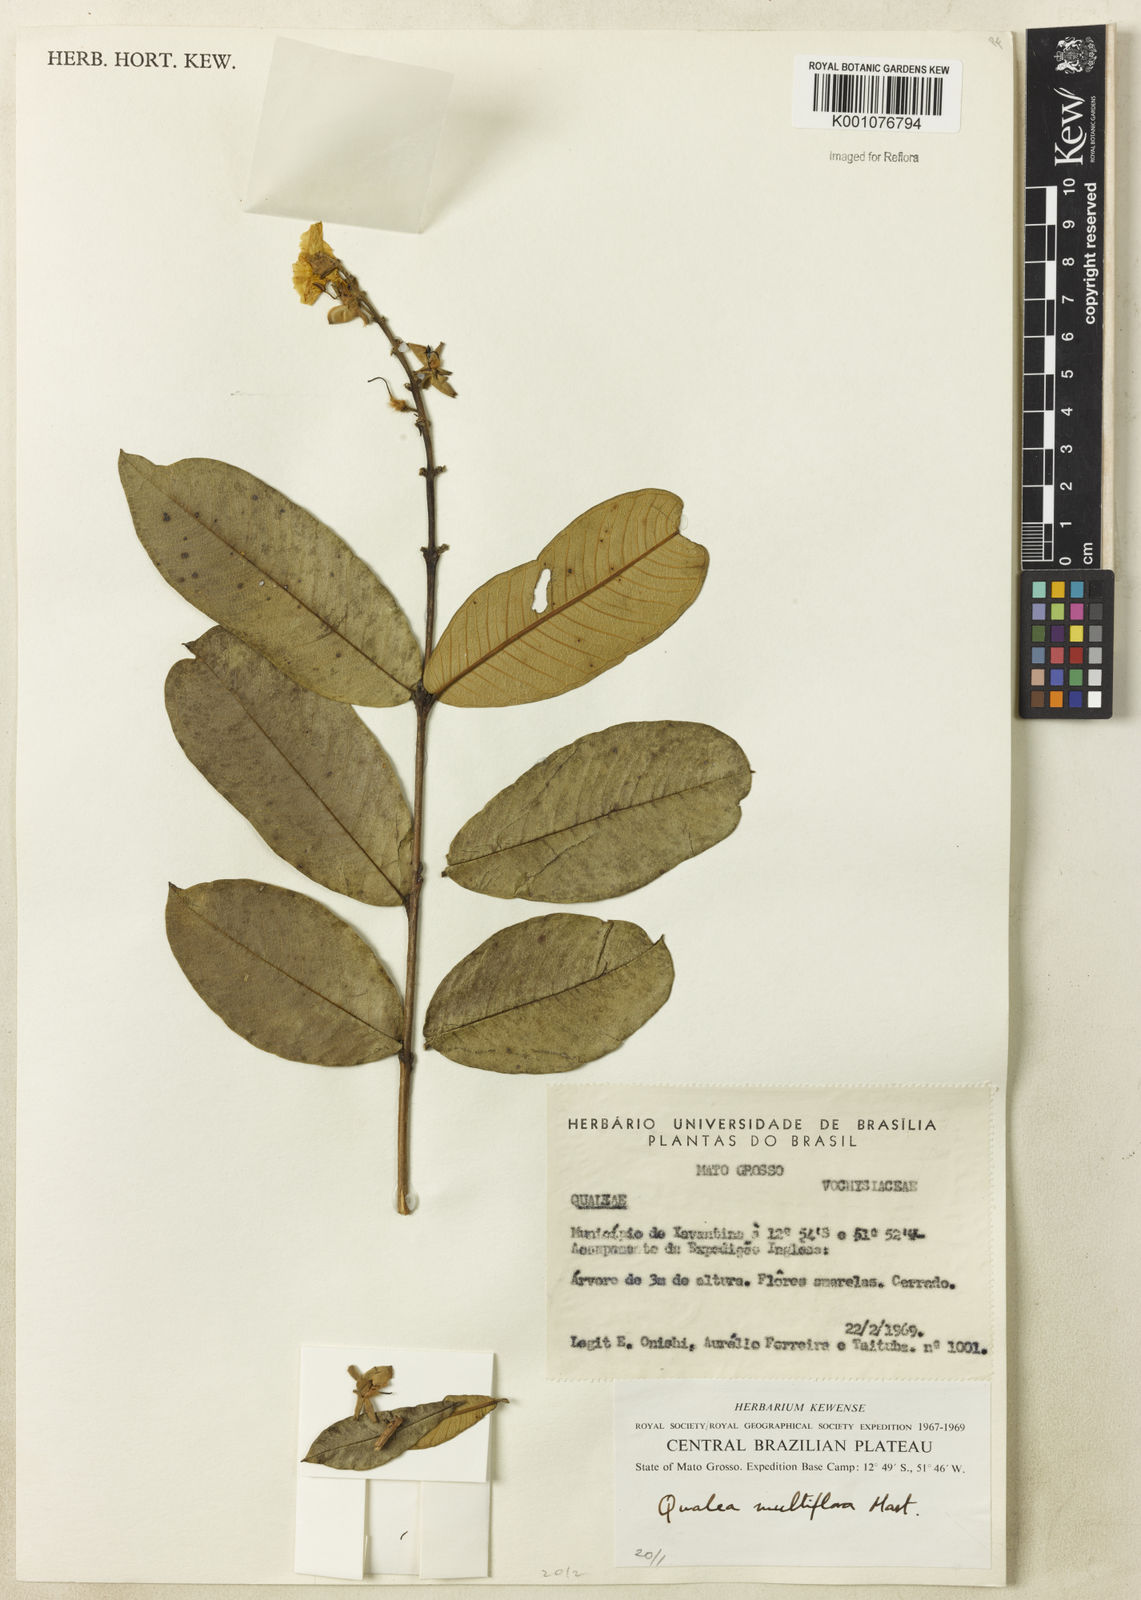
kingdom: Plantae
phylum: Tracheophyta
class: Magnoliopsida
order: Myrtales
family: Vochysiaceae
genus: Qualea
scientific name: Qualea multiflora
